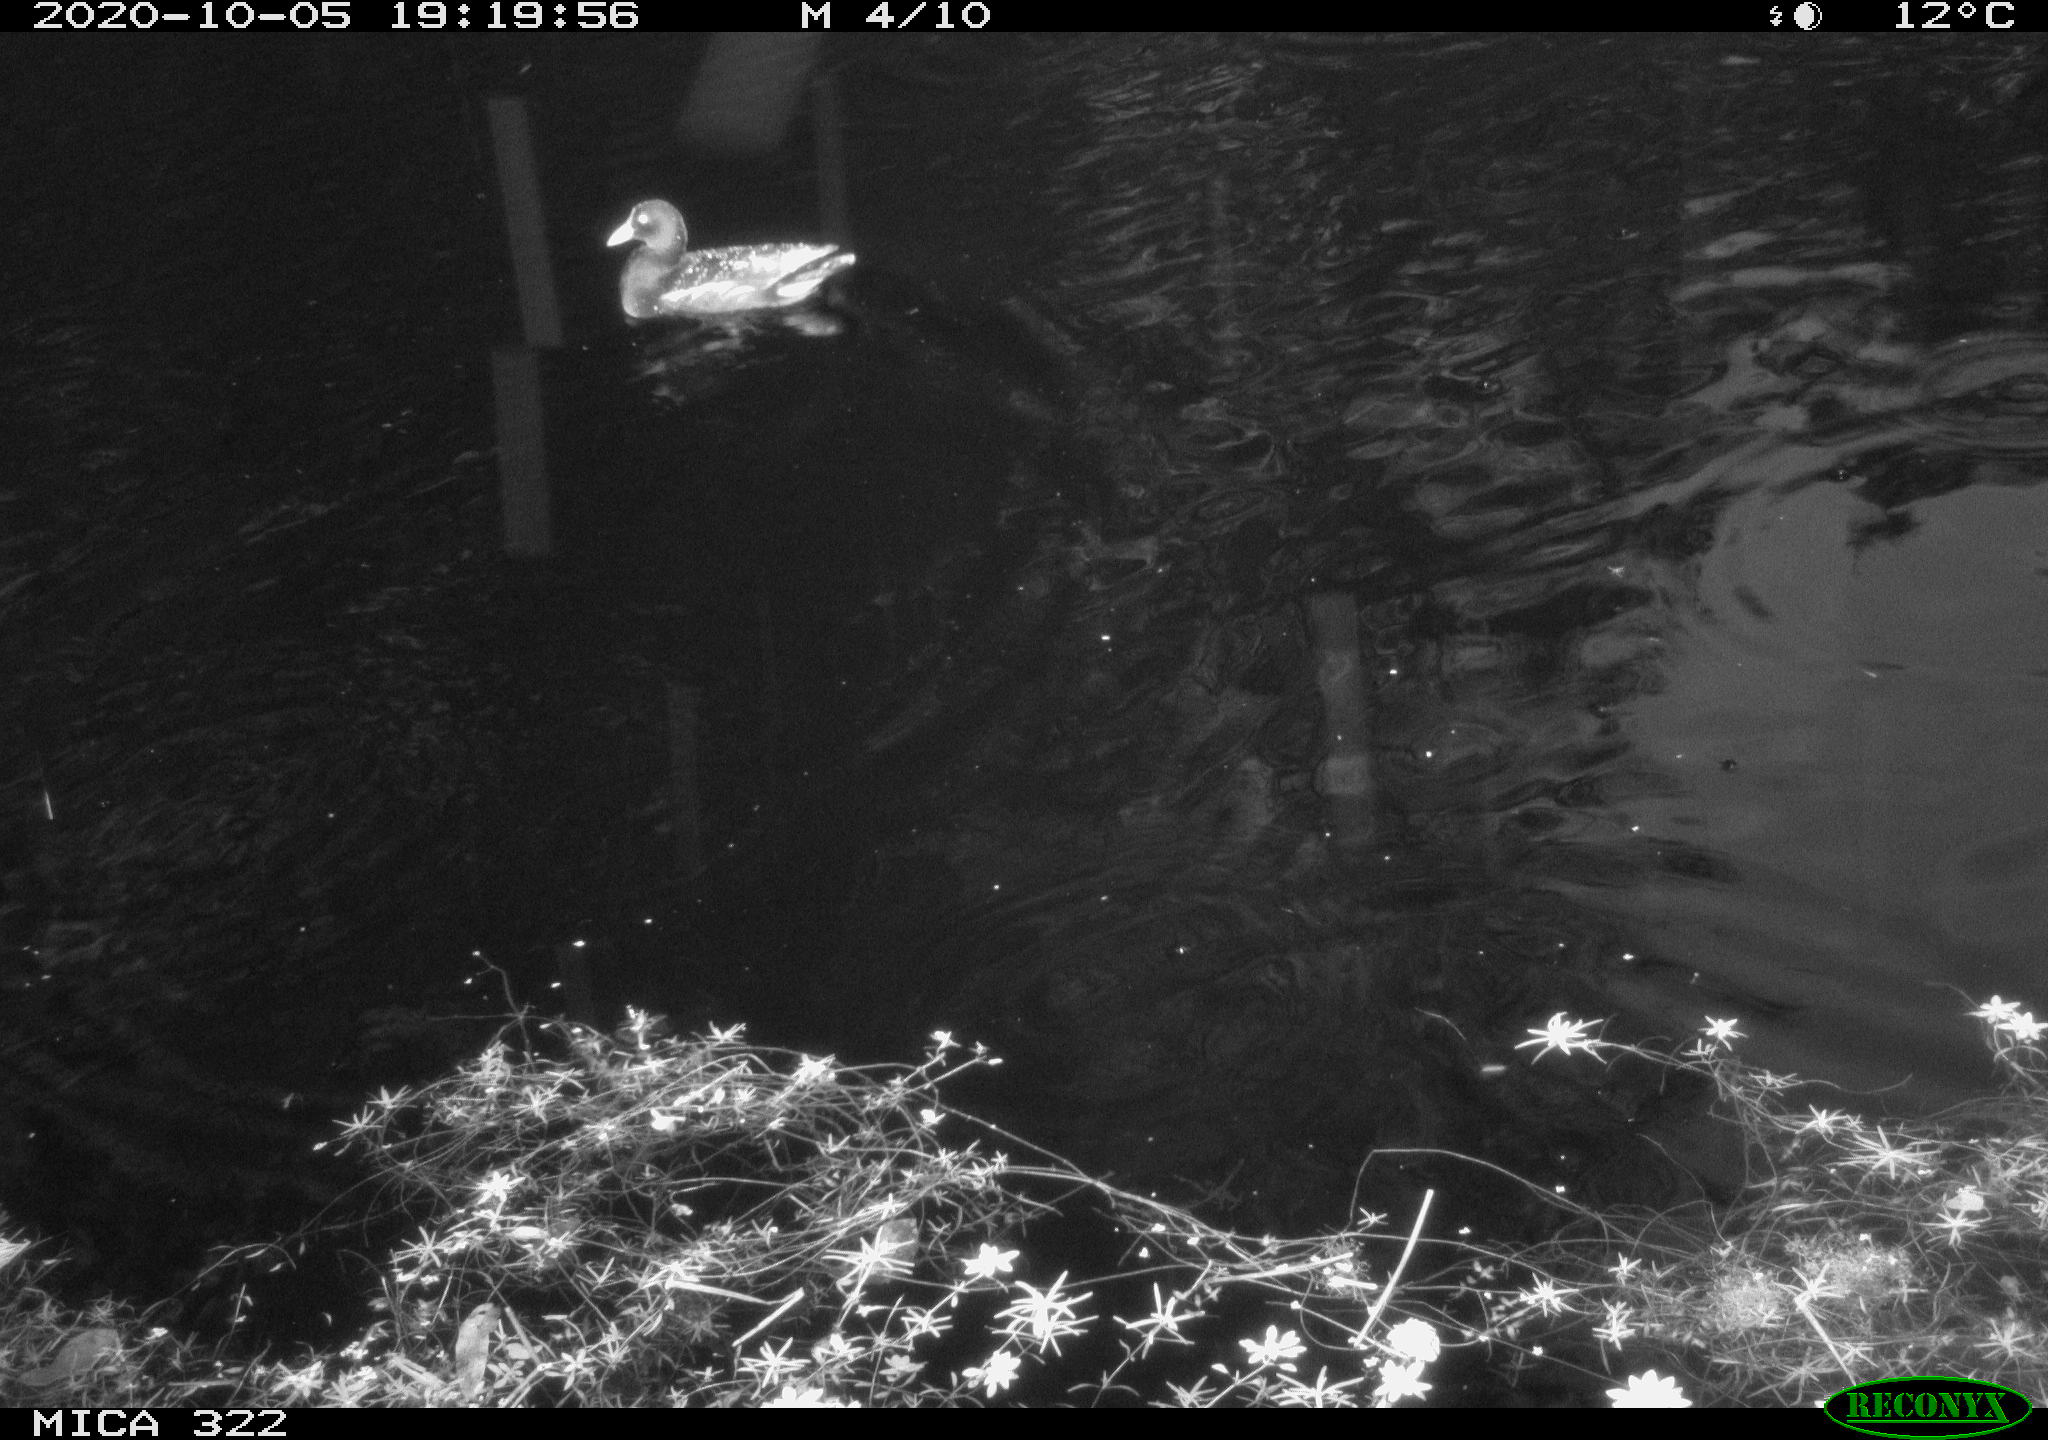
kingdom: Animalia
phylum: Chordata
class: Aves
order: Gruiformes
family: Rallidae
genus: Gallinula
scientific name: Gallinula chloropus
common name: Common moorhen
